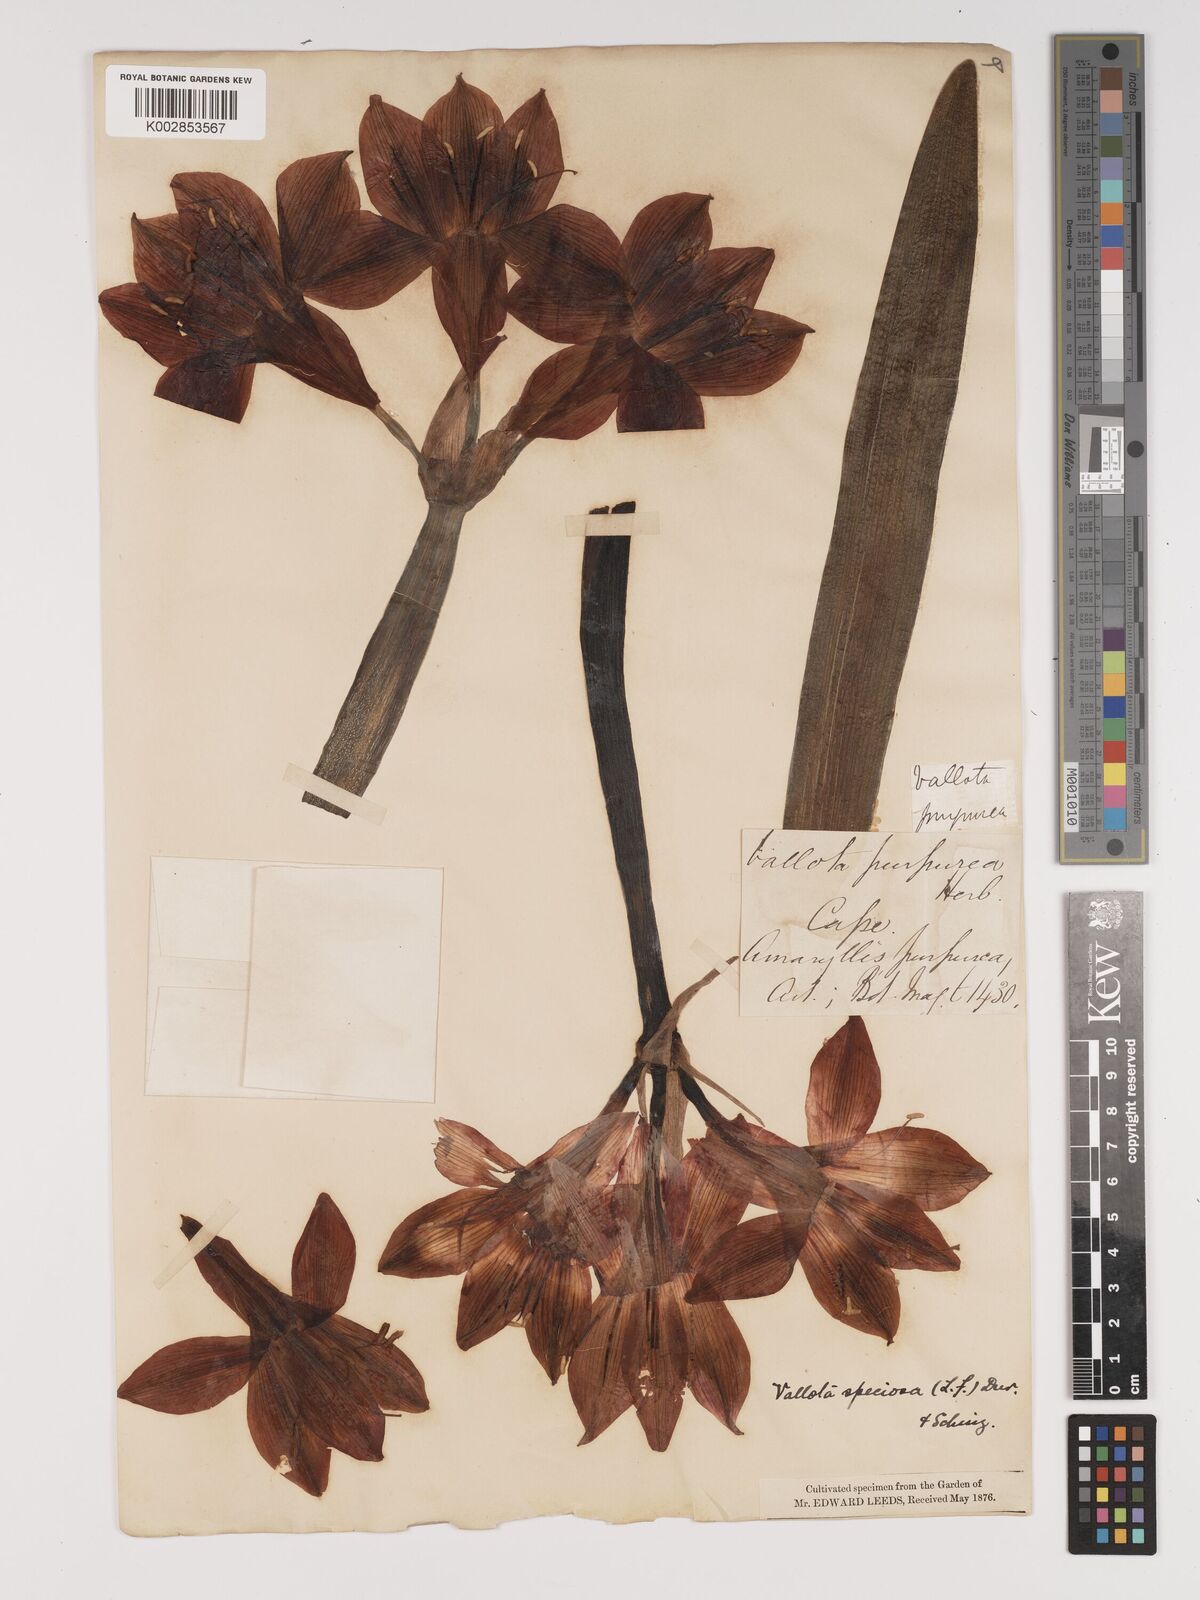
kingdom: Plantae
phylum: Tracheophyta
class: Liliopsida
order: Asparagales
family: Amaryllidaceae
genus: Cyrtanthus
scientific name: Cyrtanthus elatus
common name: Scarborough-lily
